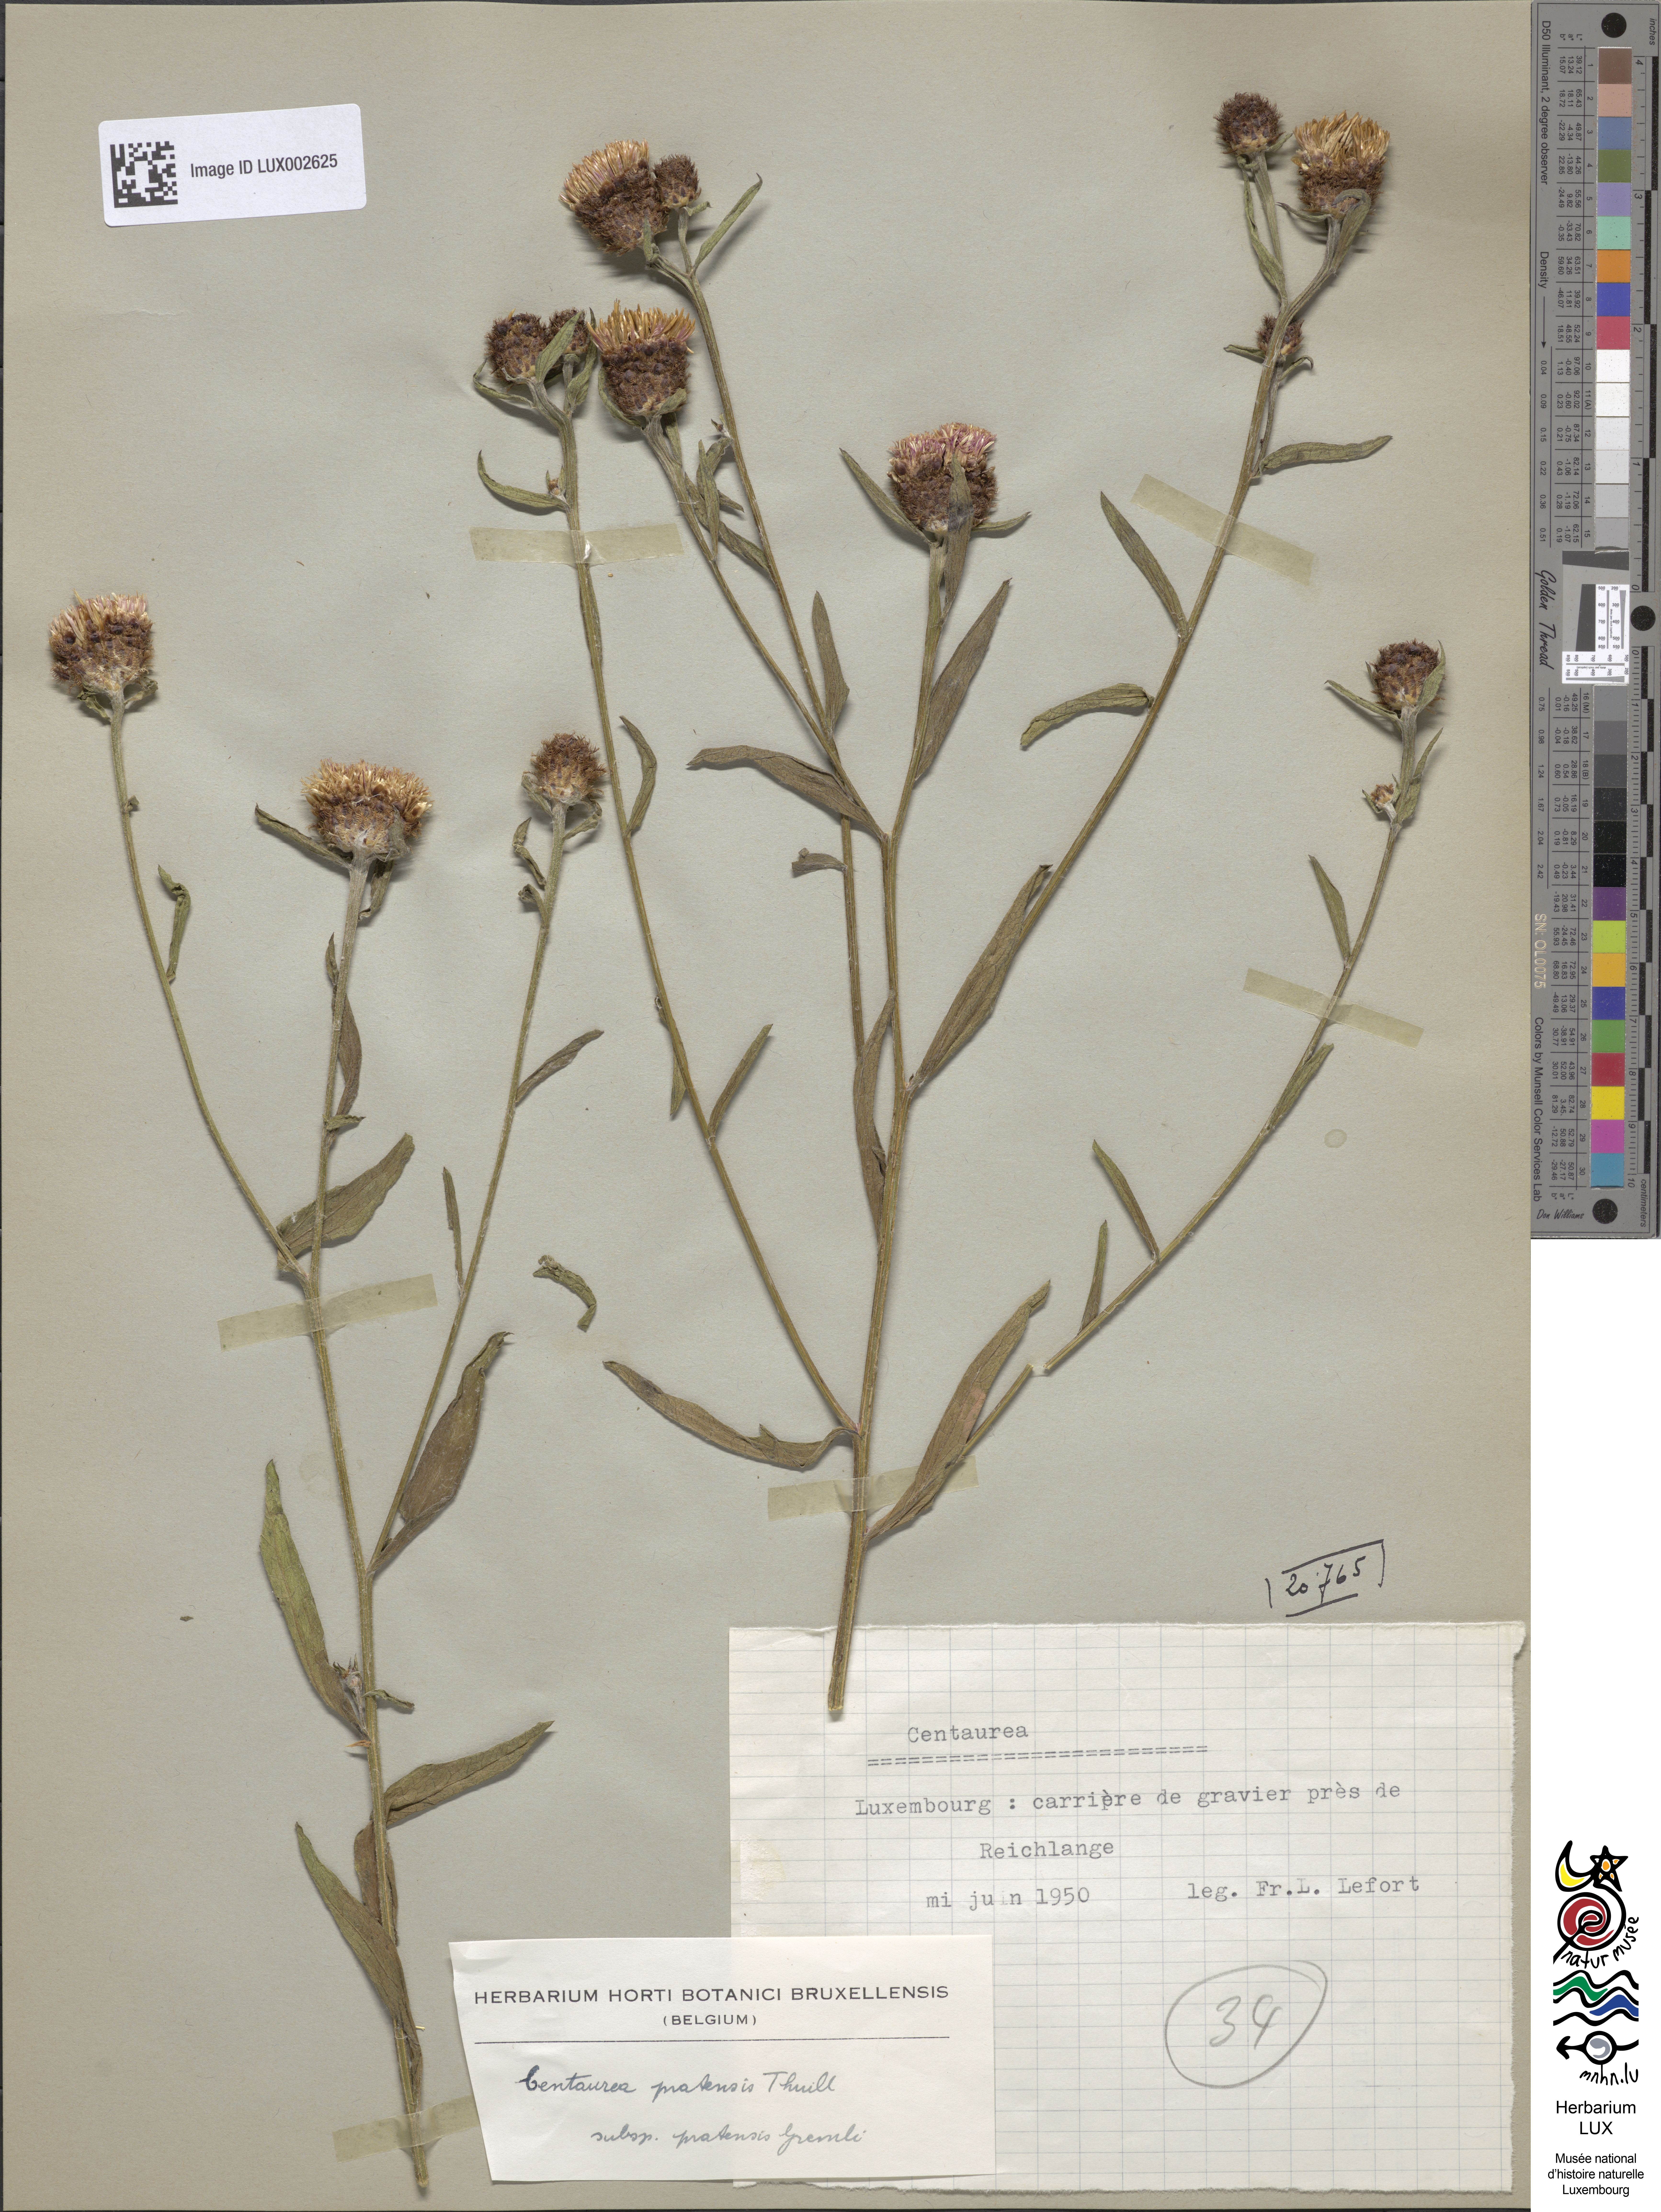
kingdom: Plantae
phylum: Tracheophyta
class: Magnoliopsida
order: Asterales
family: Asteraceae
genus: Centaurea
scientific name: Centaurea thuillieri
